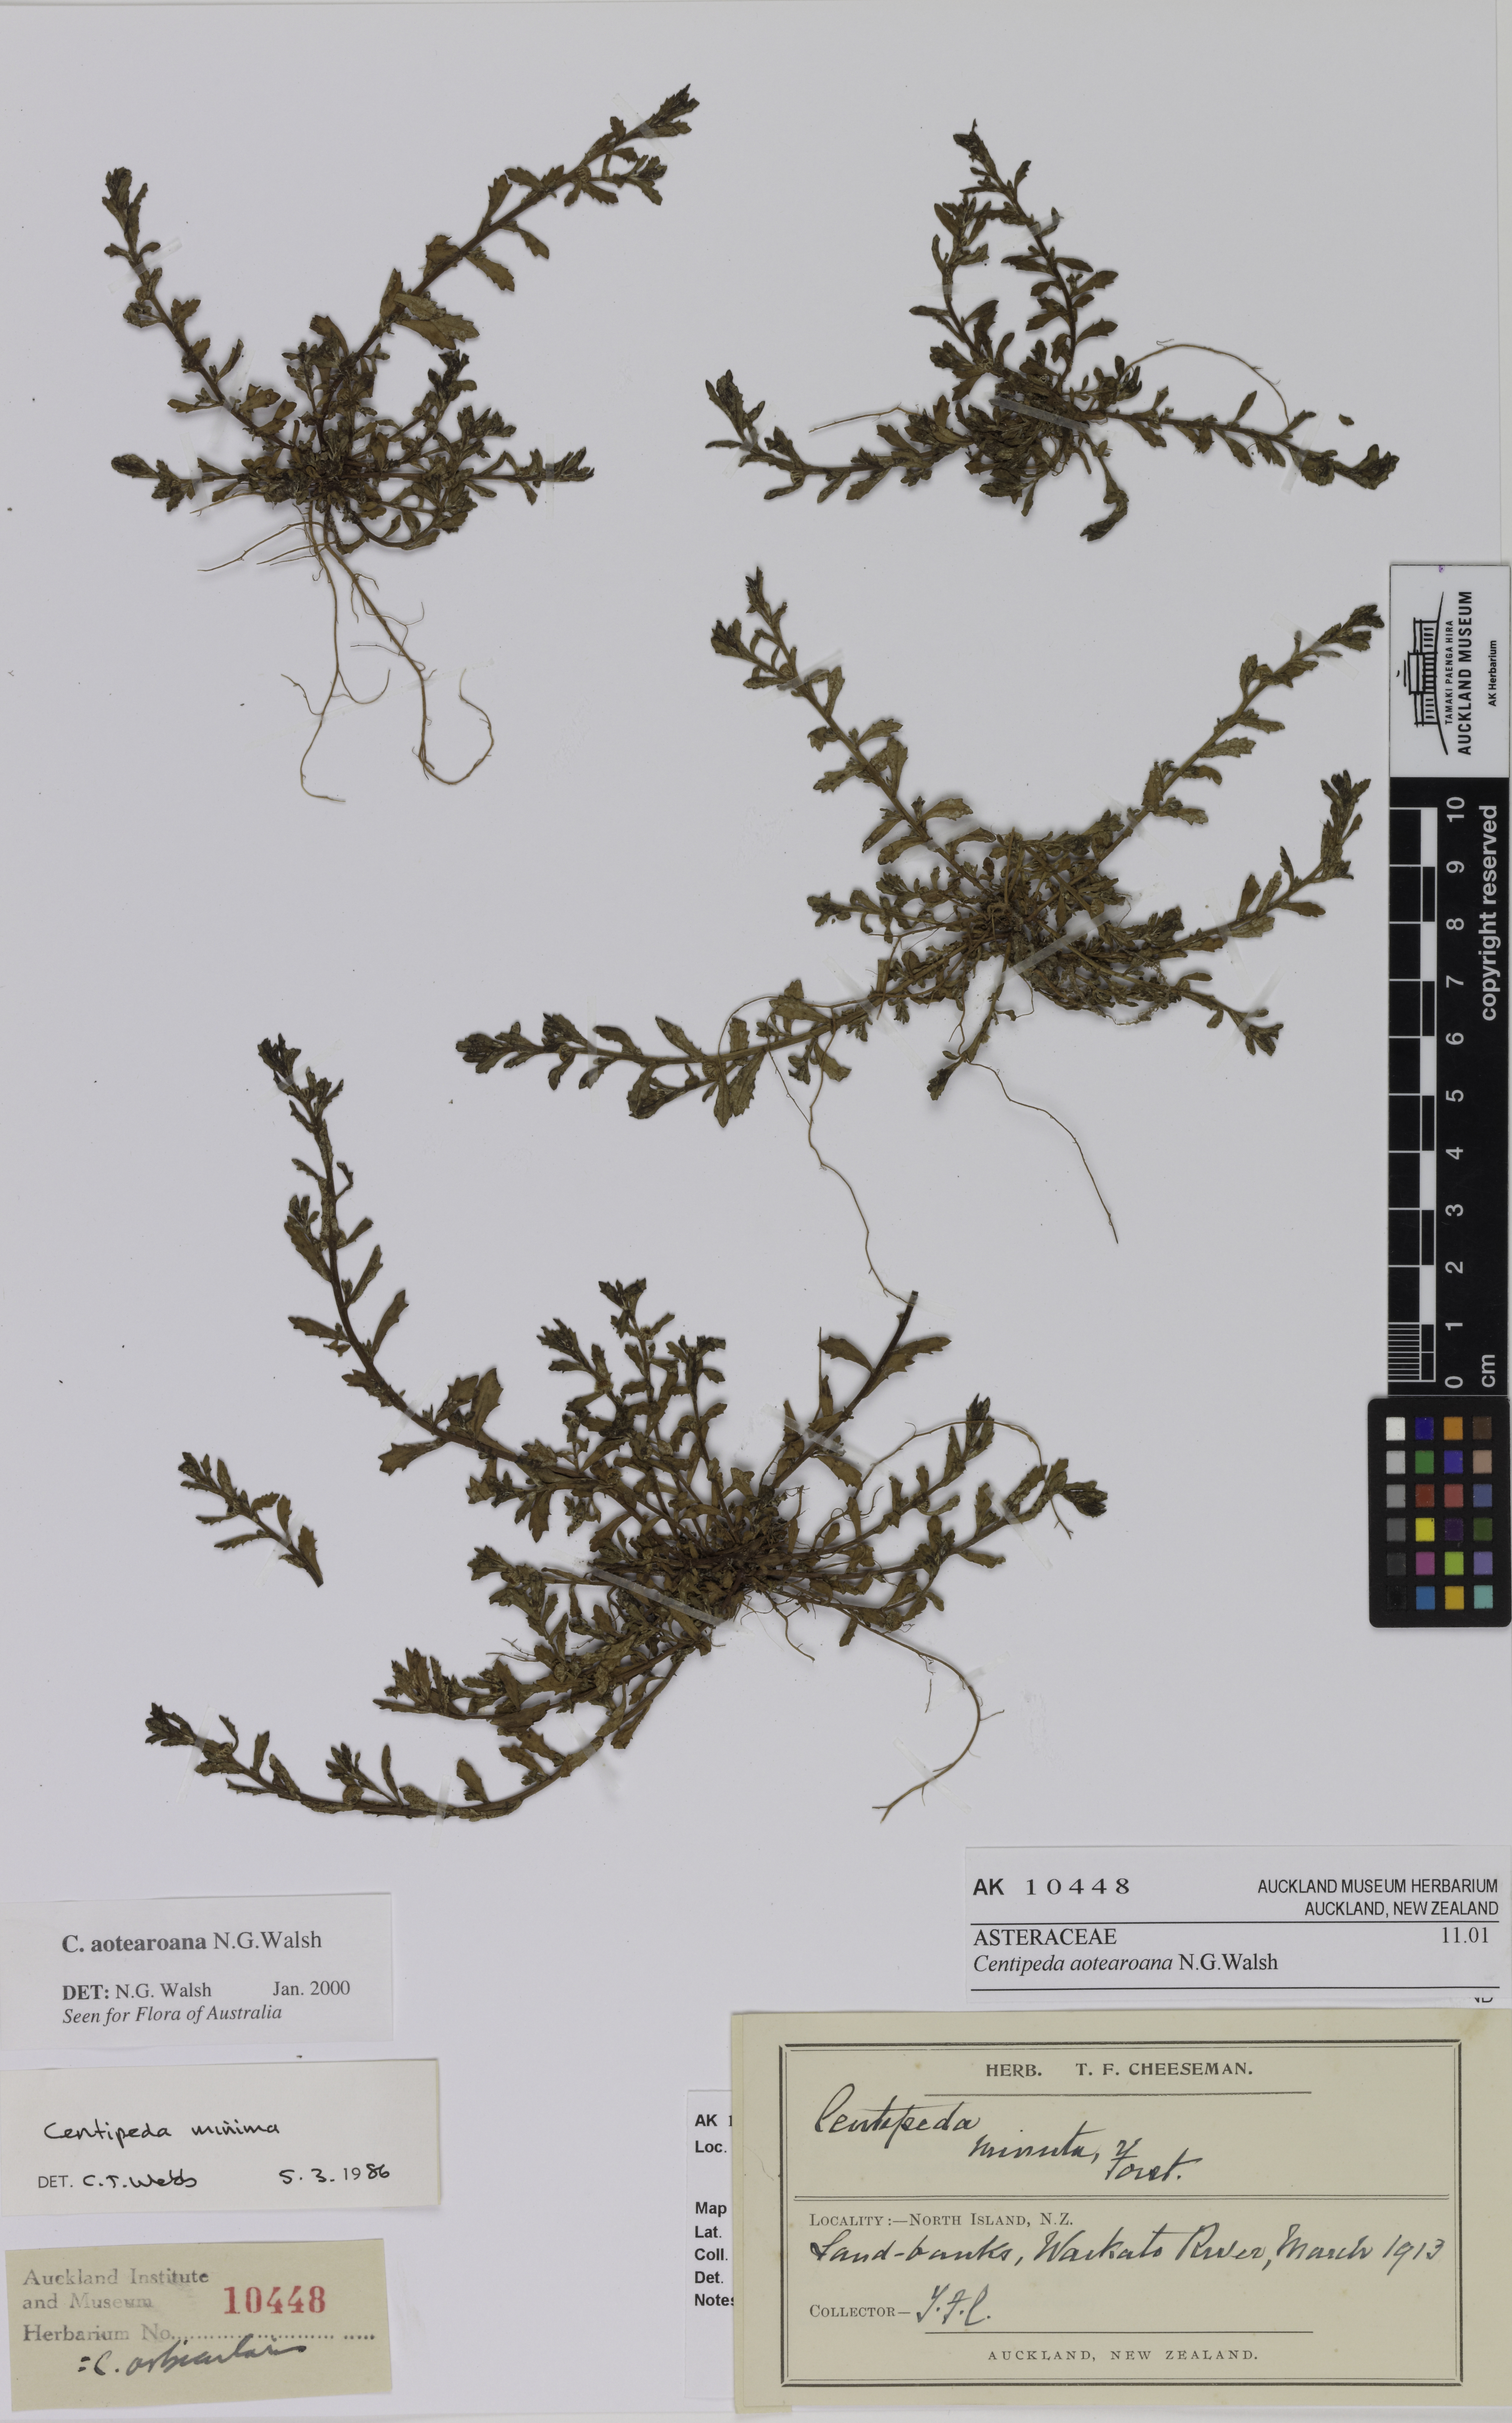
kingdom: Plantae
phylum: Tracheophyta
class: Magnoliopsida
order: Asterales
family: Asteraceae
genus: Centipeda
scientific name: Centipeda aotearoana
